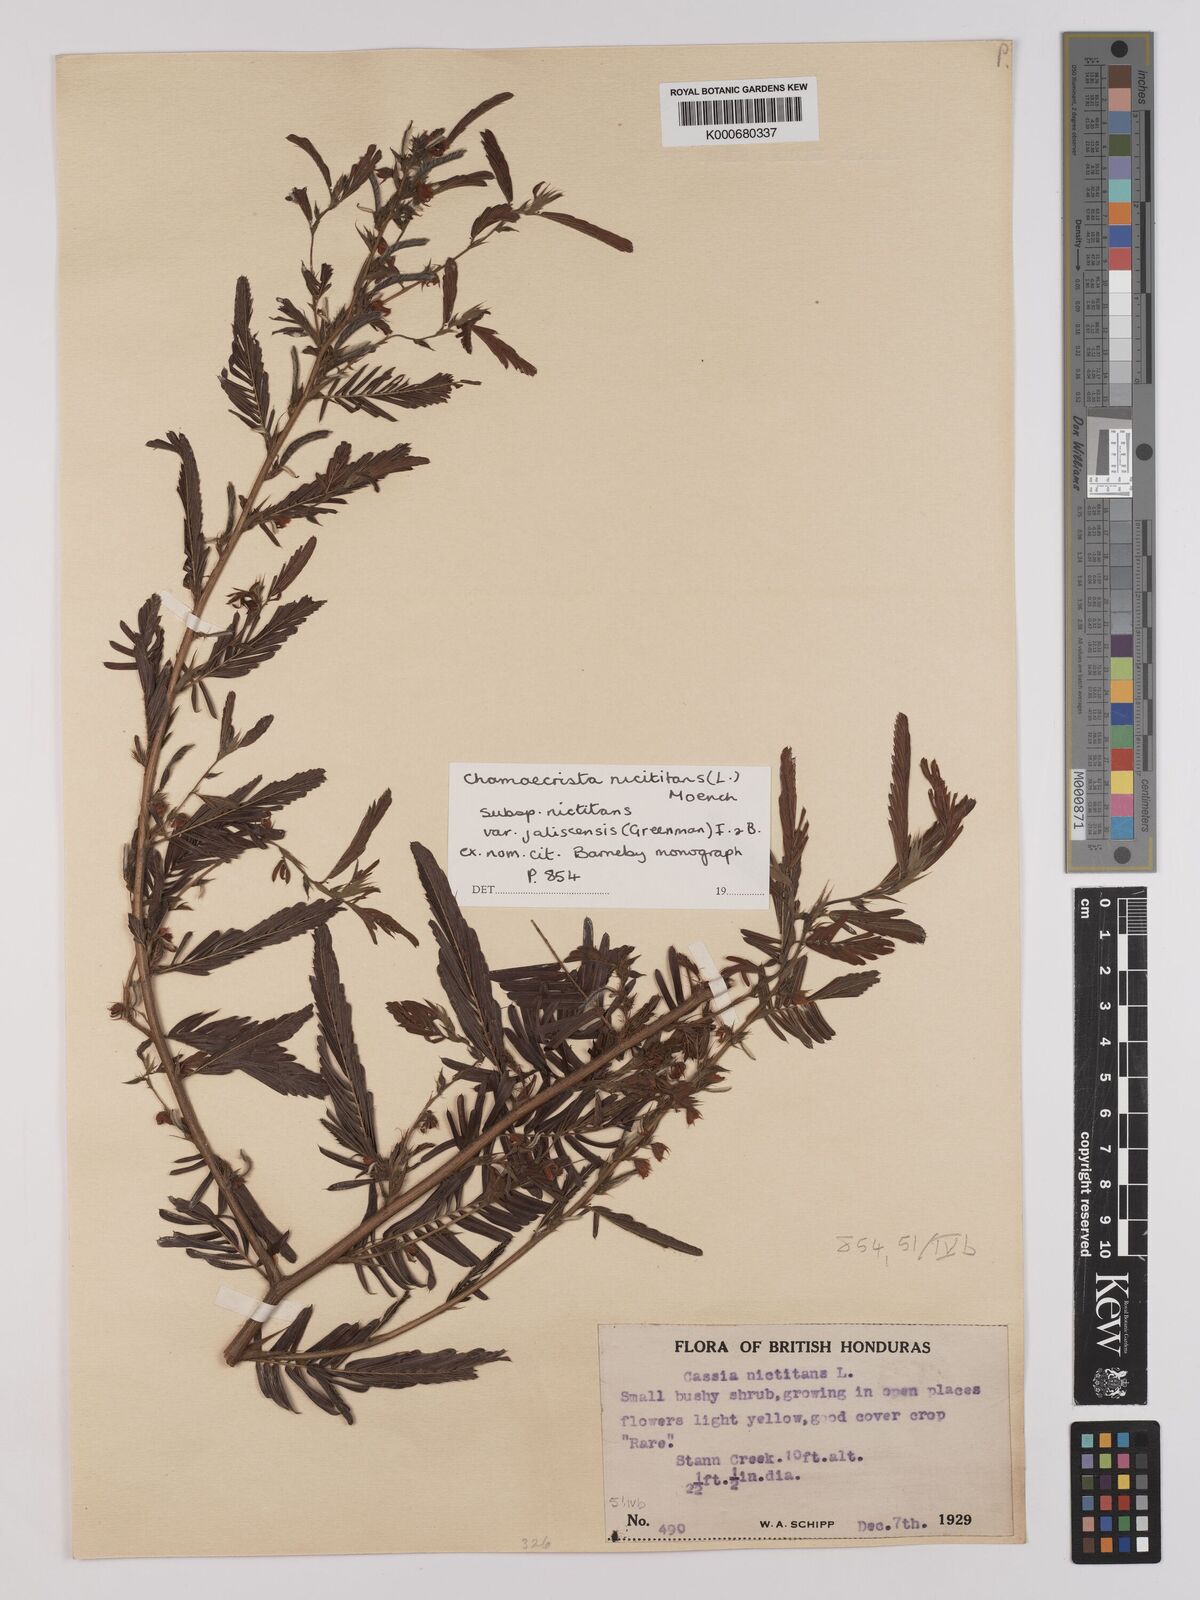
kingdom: Plantae
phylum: Tracheophyta
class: Magnoliopsida
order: Fabales
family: Fabaceae
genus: Chamaecrista
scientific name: Chamaecrista nictitans
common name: Sensitive cassia
